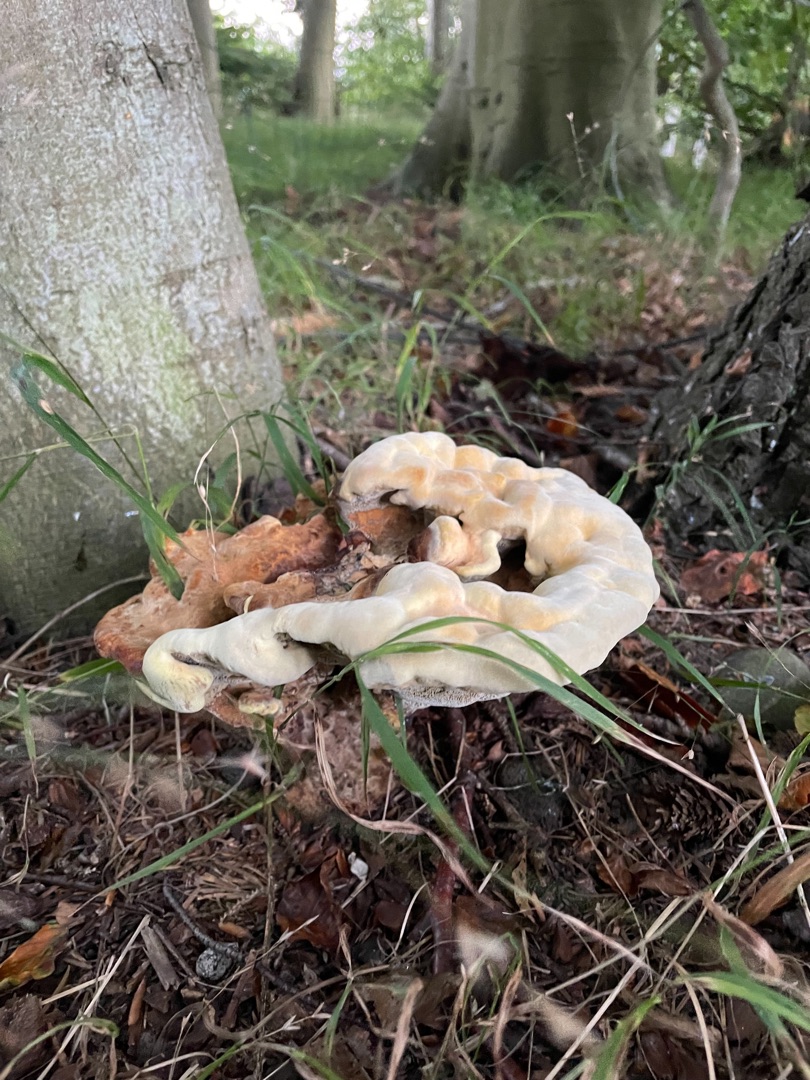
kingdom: Fungi
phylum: Basidiomycota
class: Agaricomycetes
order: Polyporales
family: Laetiporaceae
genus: Phaeolus
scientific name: Phaeolus schweinitzii
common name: Brunporesvamp
